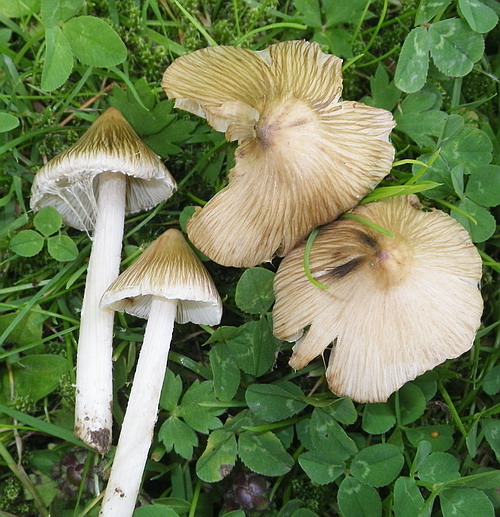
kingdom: Fungi
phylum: Basidiomycota
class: Agaricomycetes
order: Agaricales
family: Inocybaceae
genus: Pseudosperma
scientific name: Pseudosperma rimosum
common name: gulbladet trævlhat
